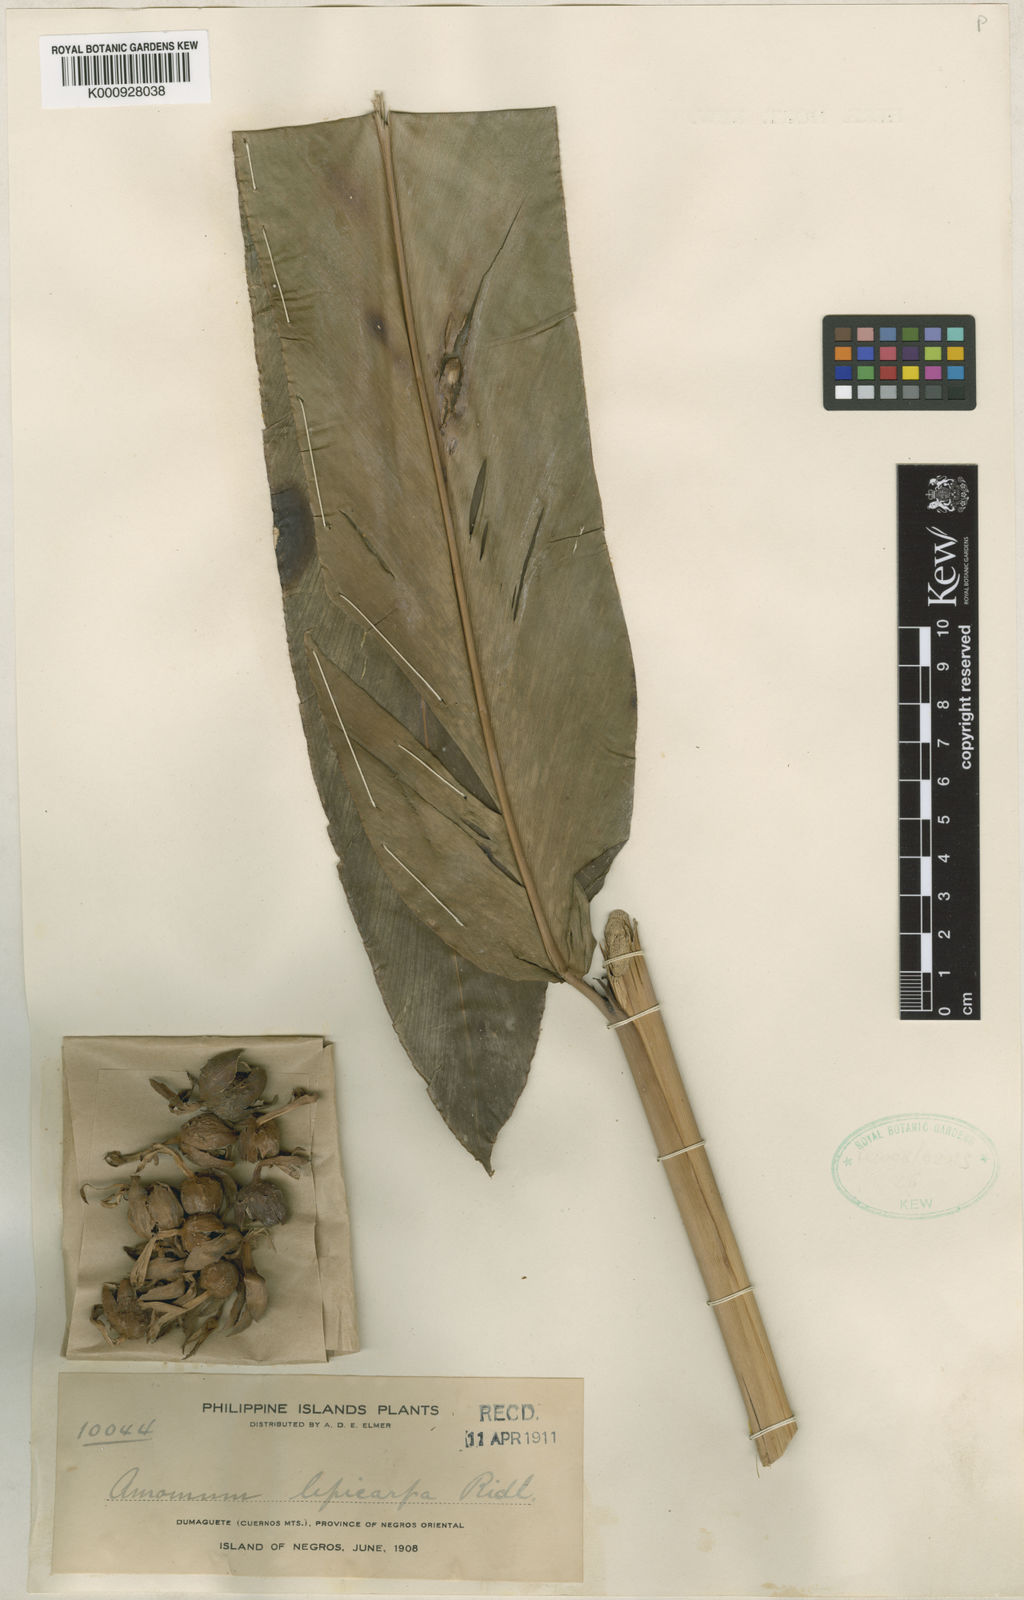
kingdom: Plantae
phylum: Tracheophyta
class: Liliopsida
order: Zingiberales
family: Zingiberaceae
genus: Etlingera
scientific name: Etlingera alba
